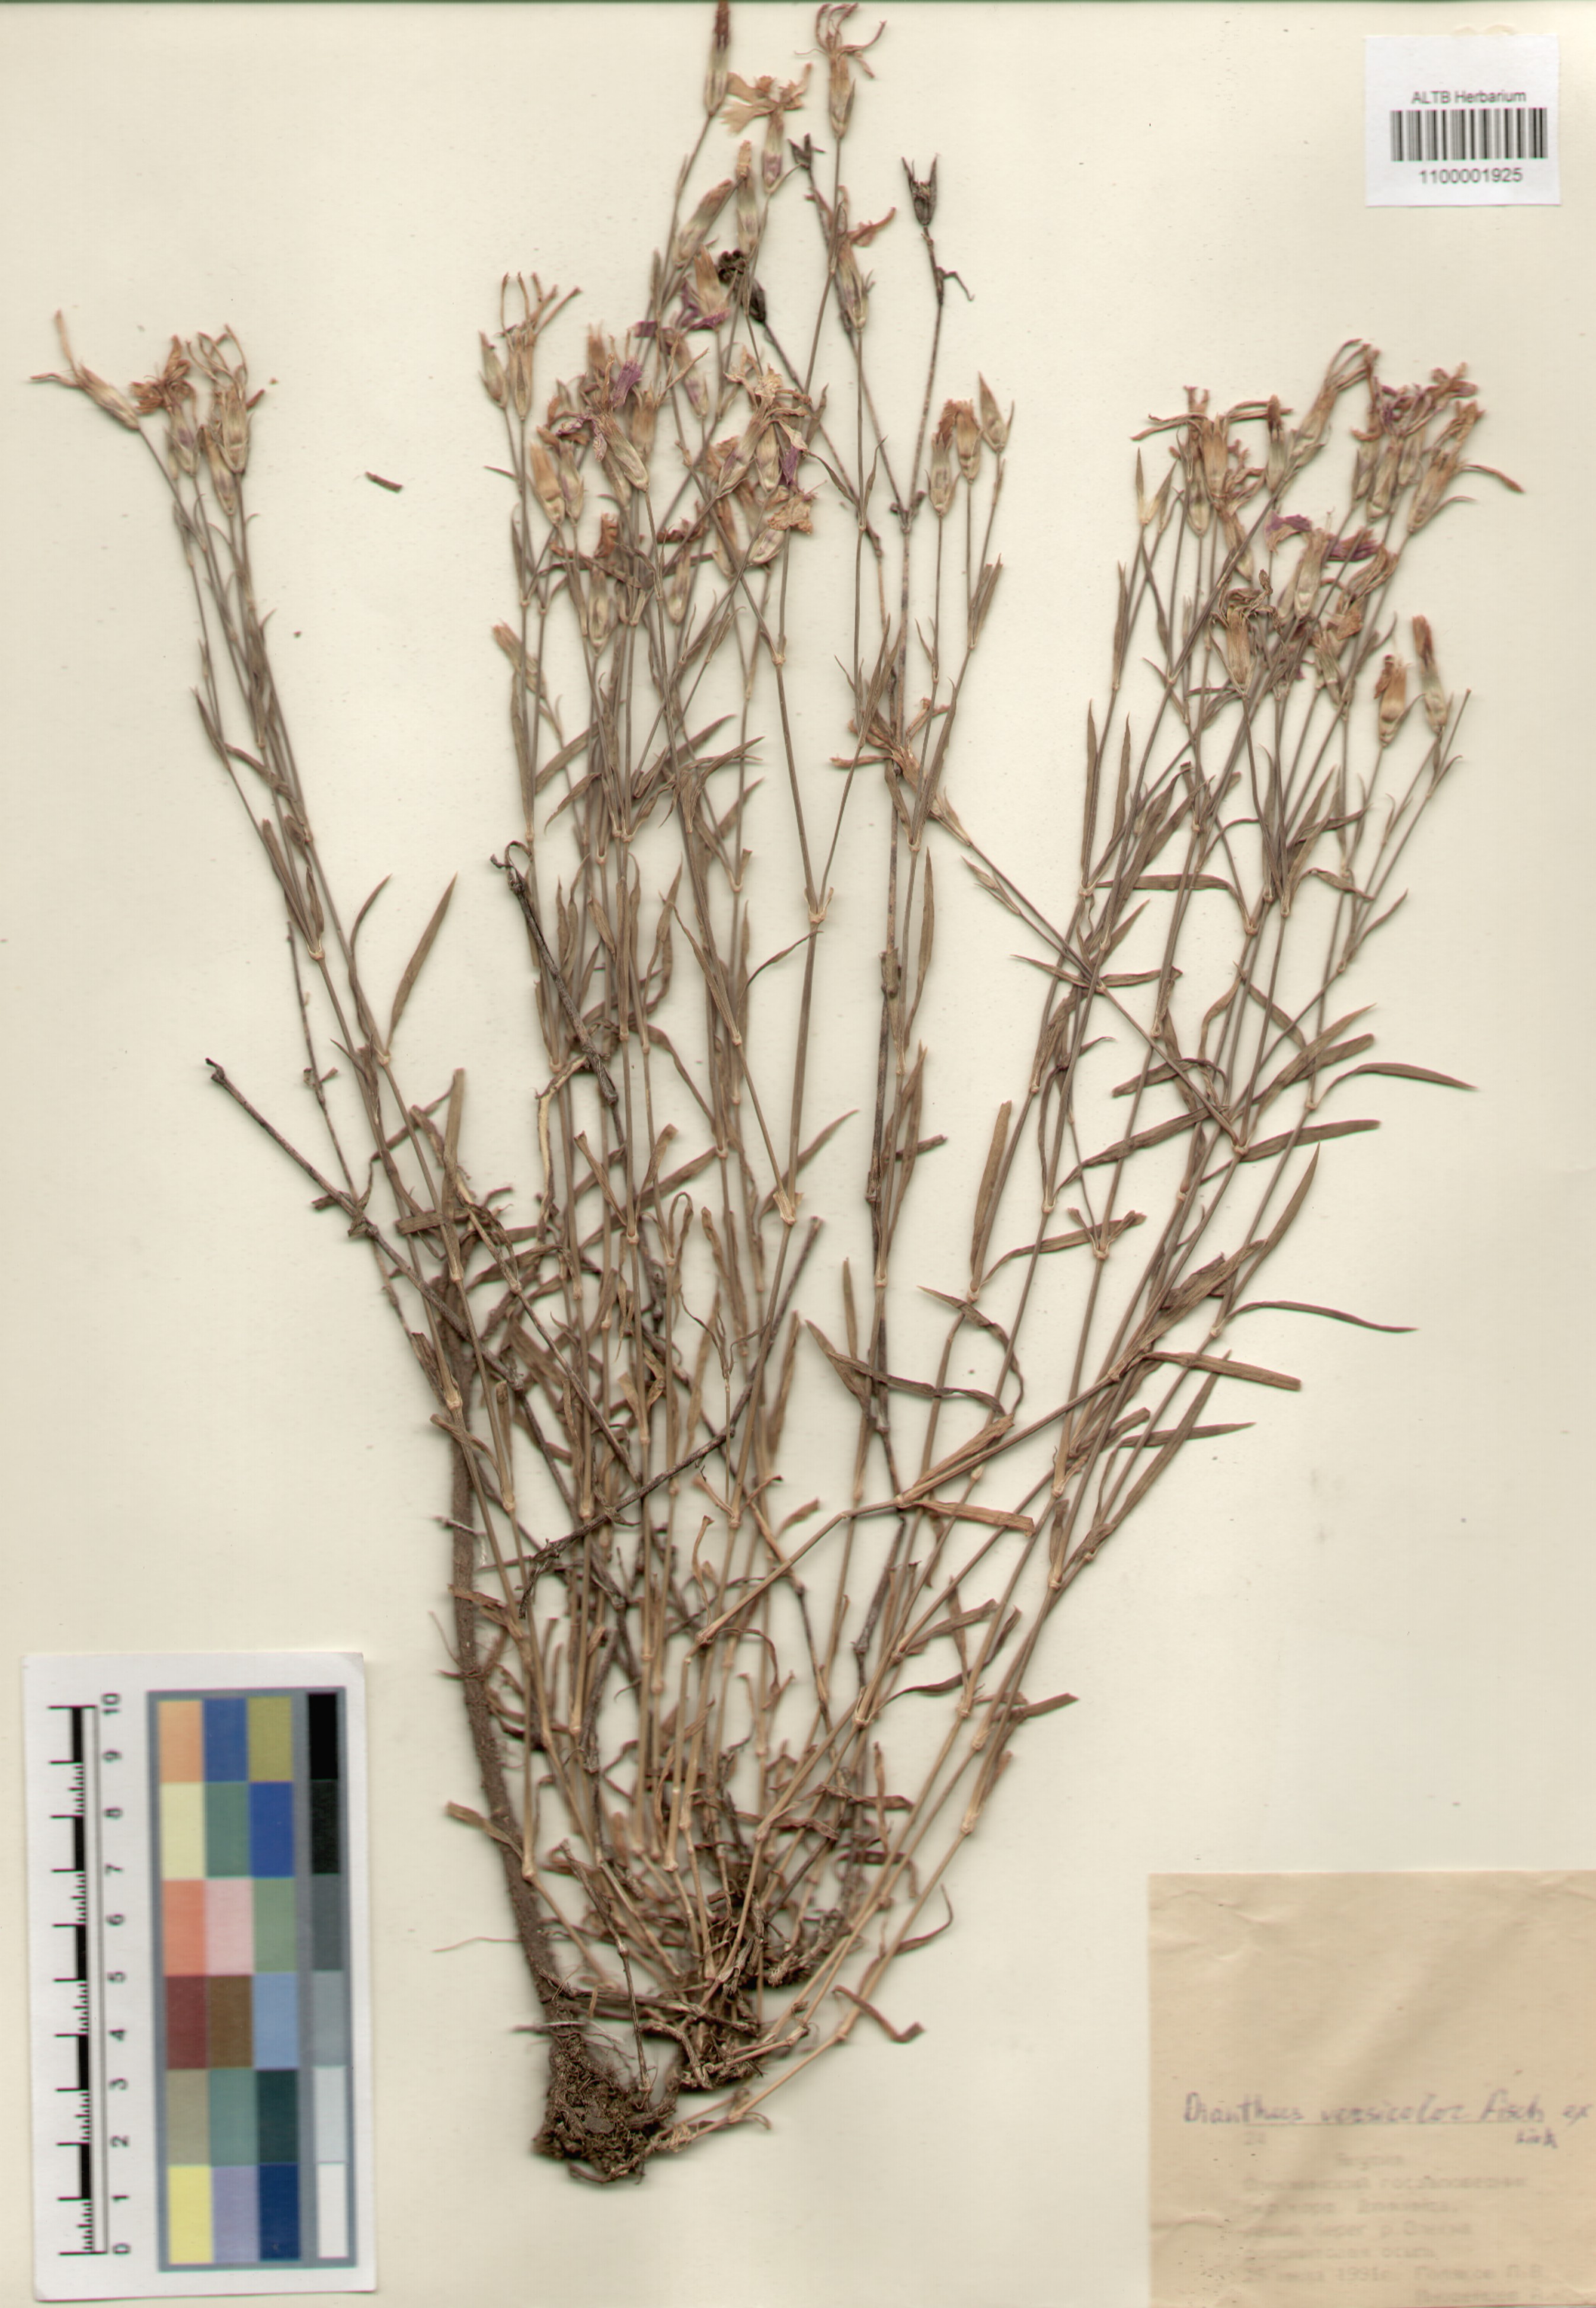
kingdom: Plantae
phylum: Tracheophyta
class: Magnoliopsida
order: Caryophyllales
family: Caryophyllaceae
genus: Dianthus
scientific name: Dianthus chinensis
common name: Rainbow pink
